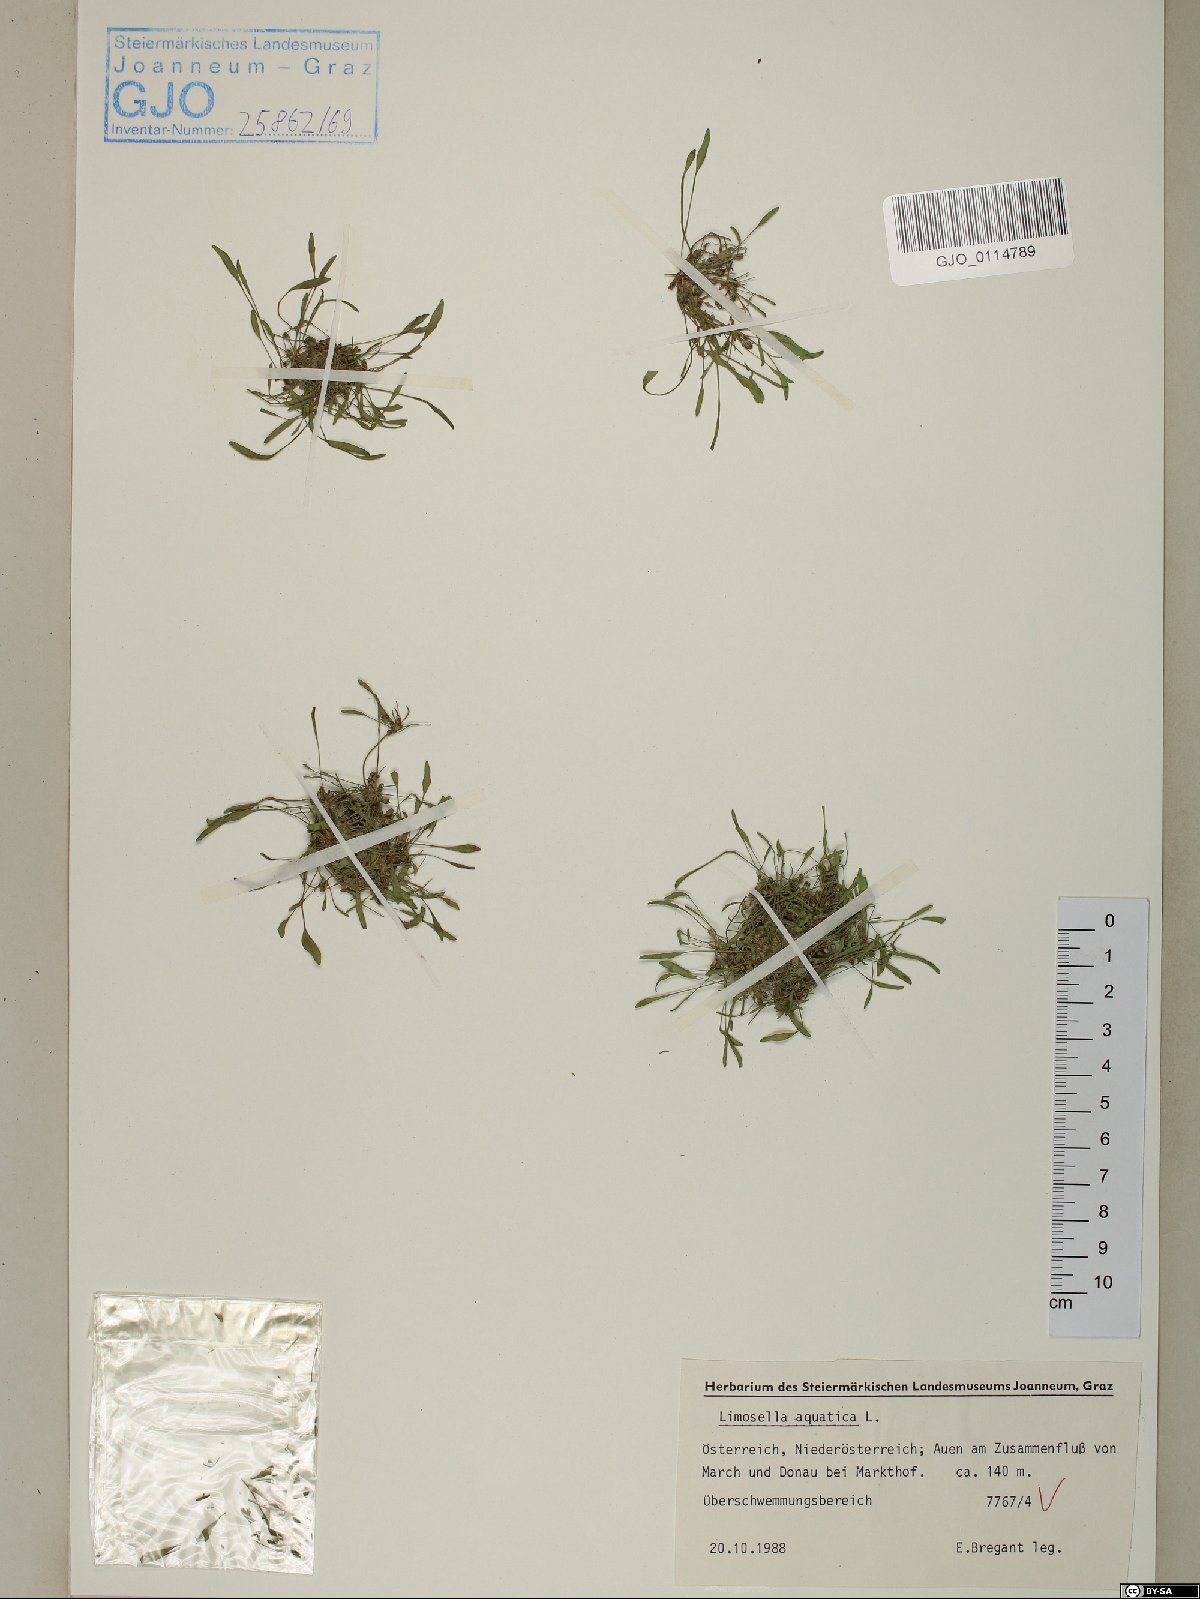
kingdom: Plantae
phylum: Tracheophyta
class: Magnoliopsida
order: Lamiales
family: Scrophulariaceae
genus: Limosella
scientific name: Limosella aquatica
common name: Mudwort
